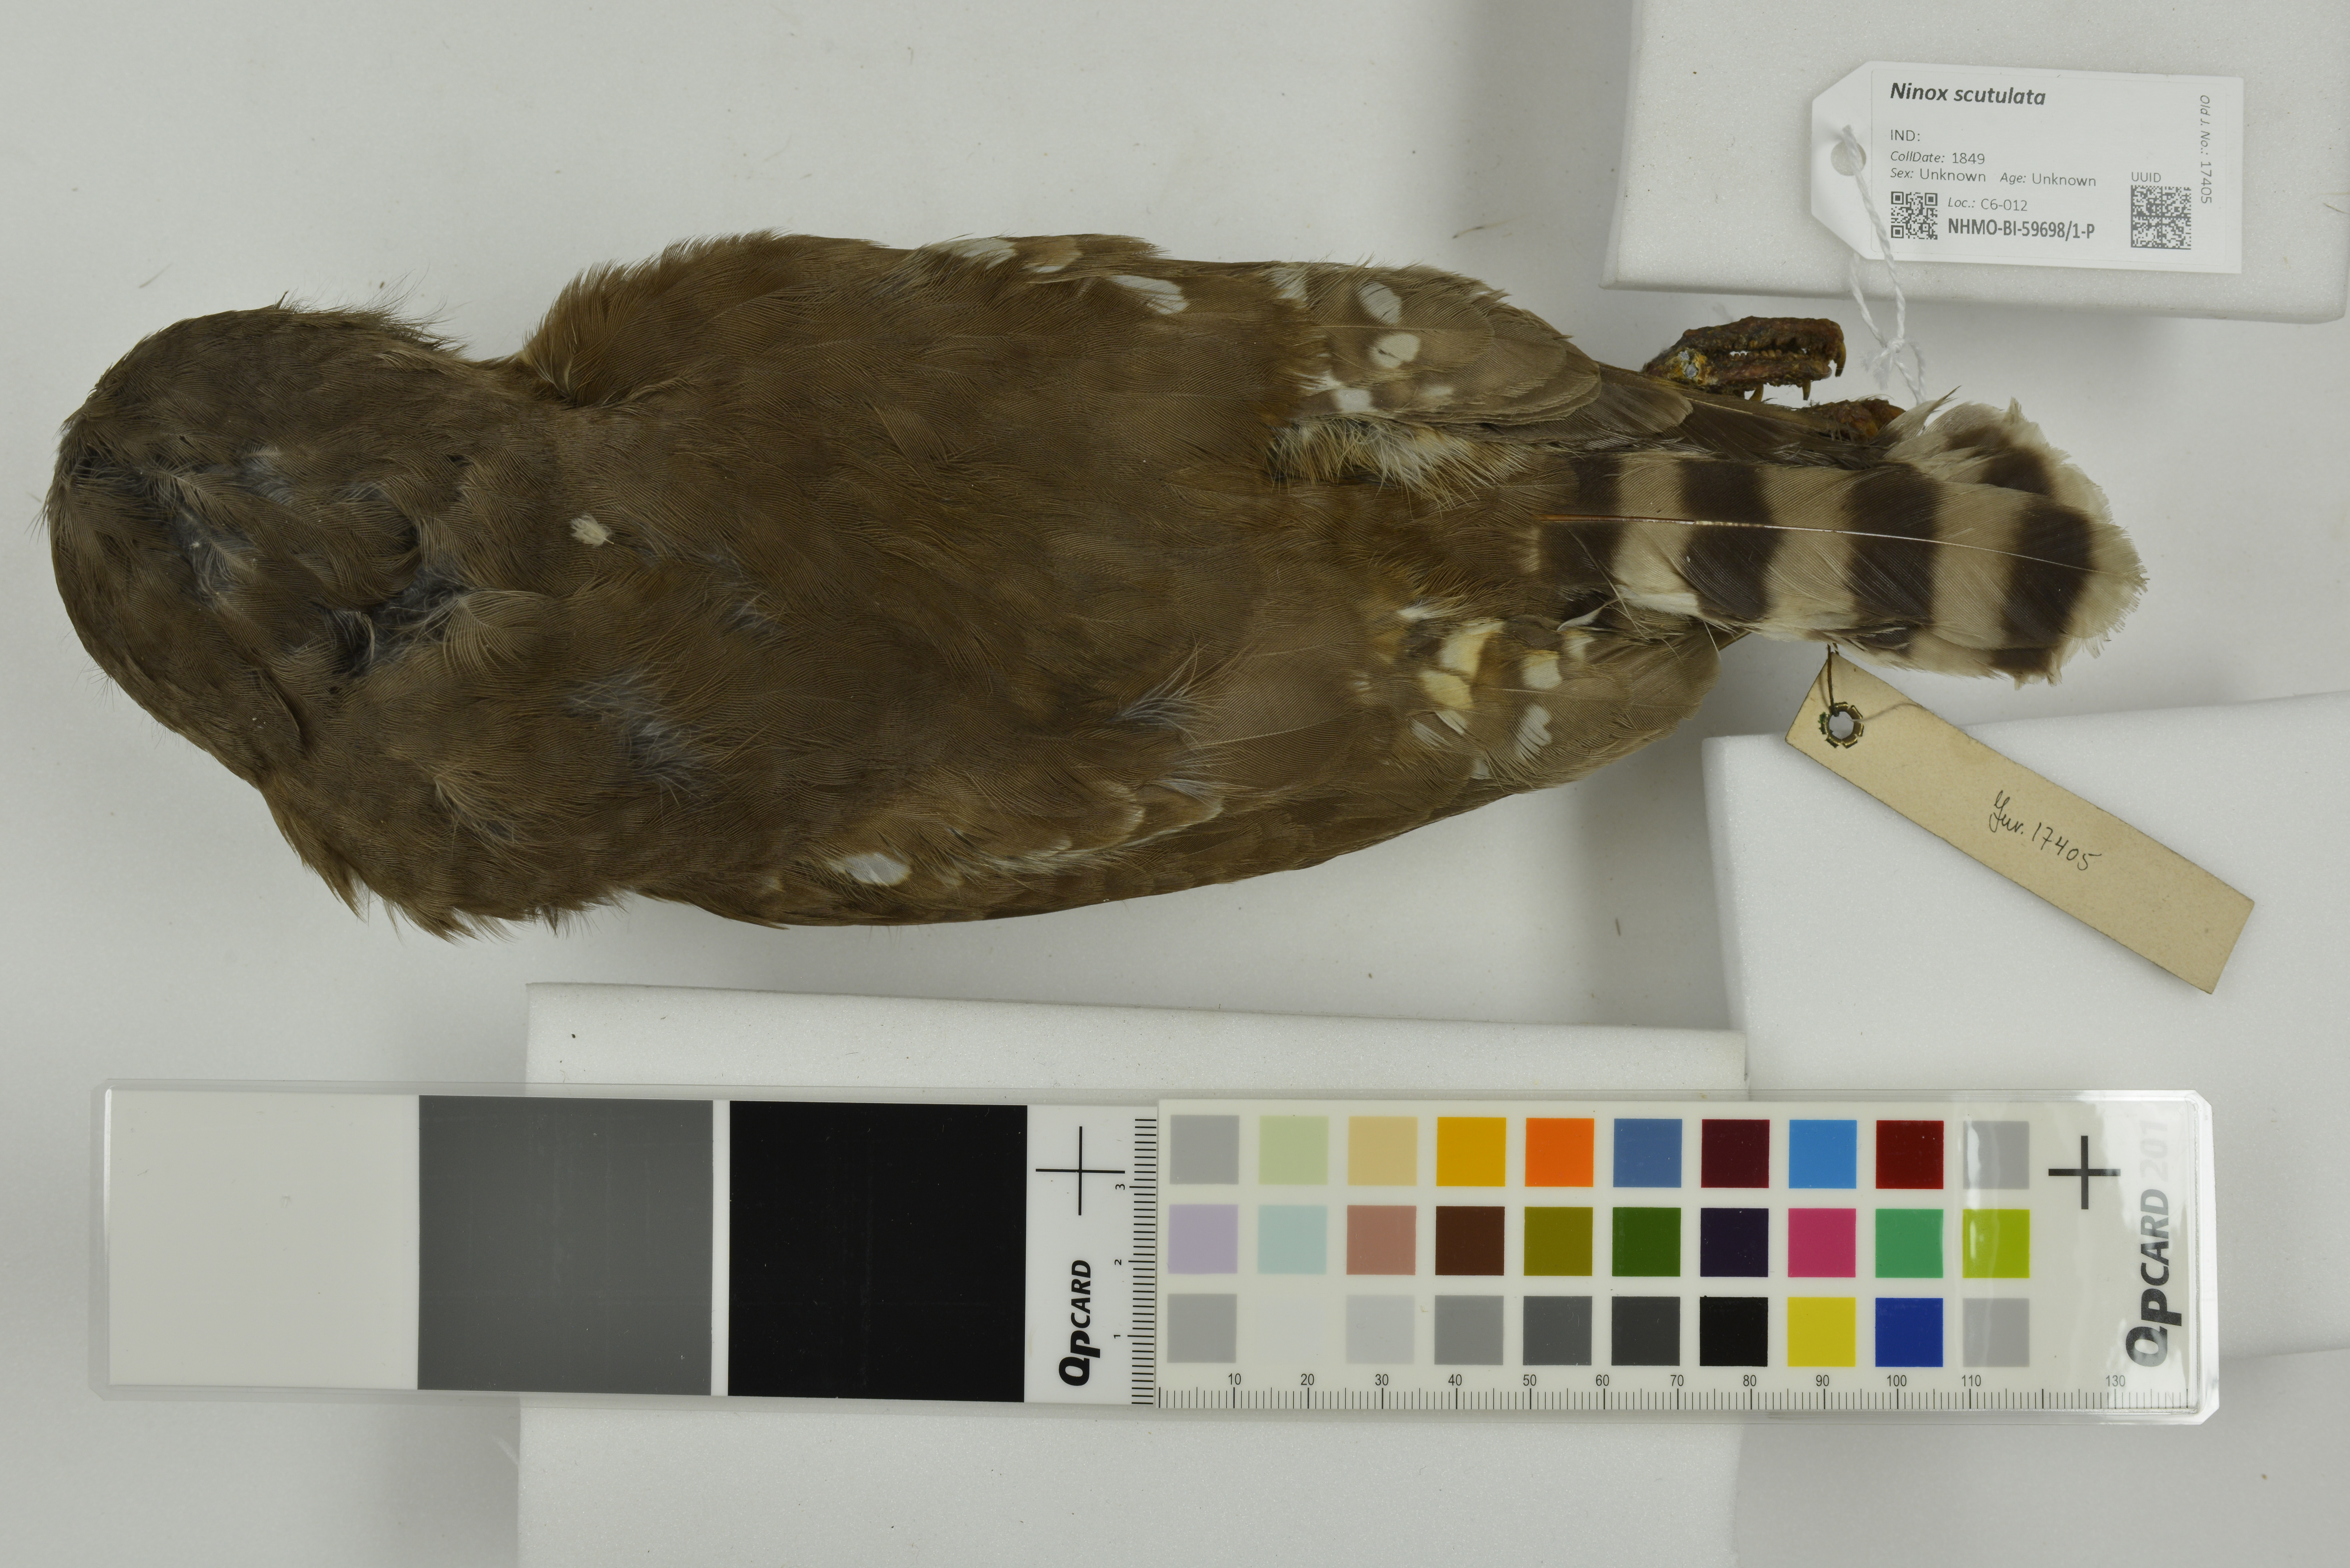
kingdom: Animalia
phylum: Chordata
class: Aves
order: Strigiformes
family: Strigidae
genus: Ninox
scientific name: Ninox scutulata
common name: Brown hawk-owl
